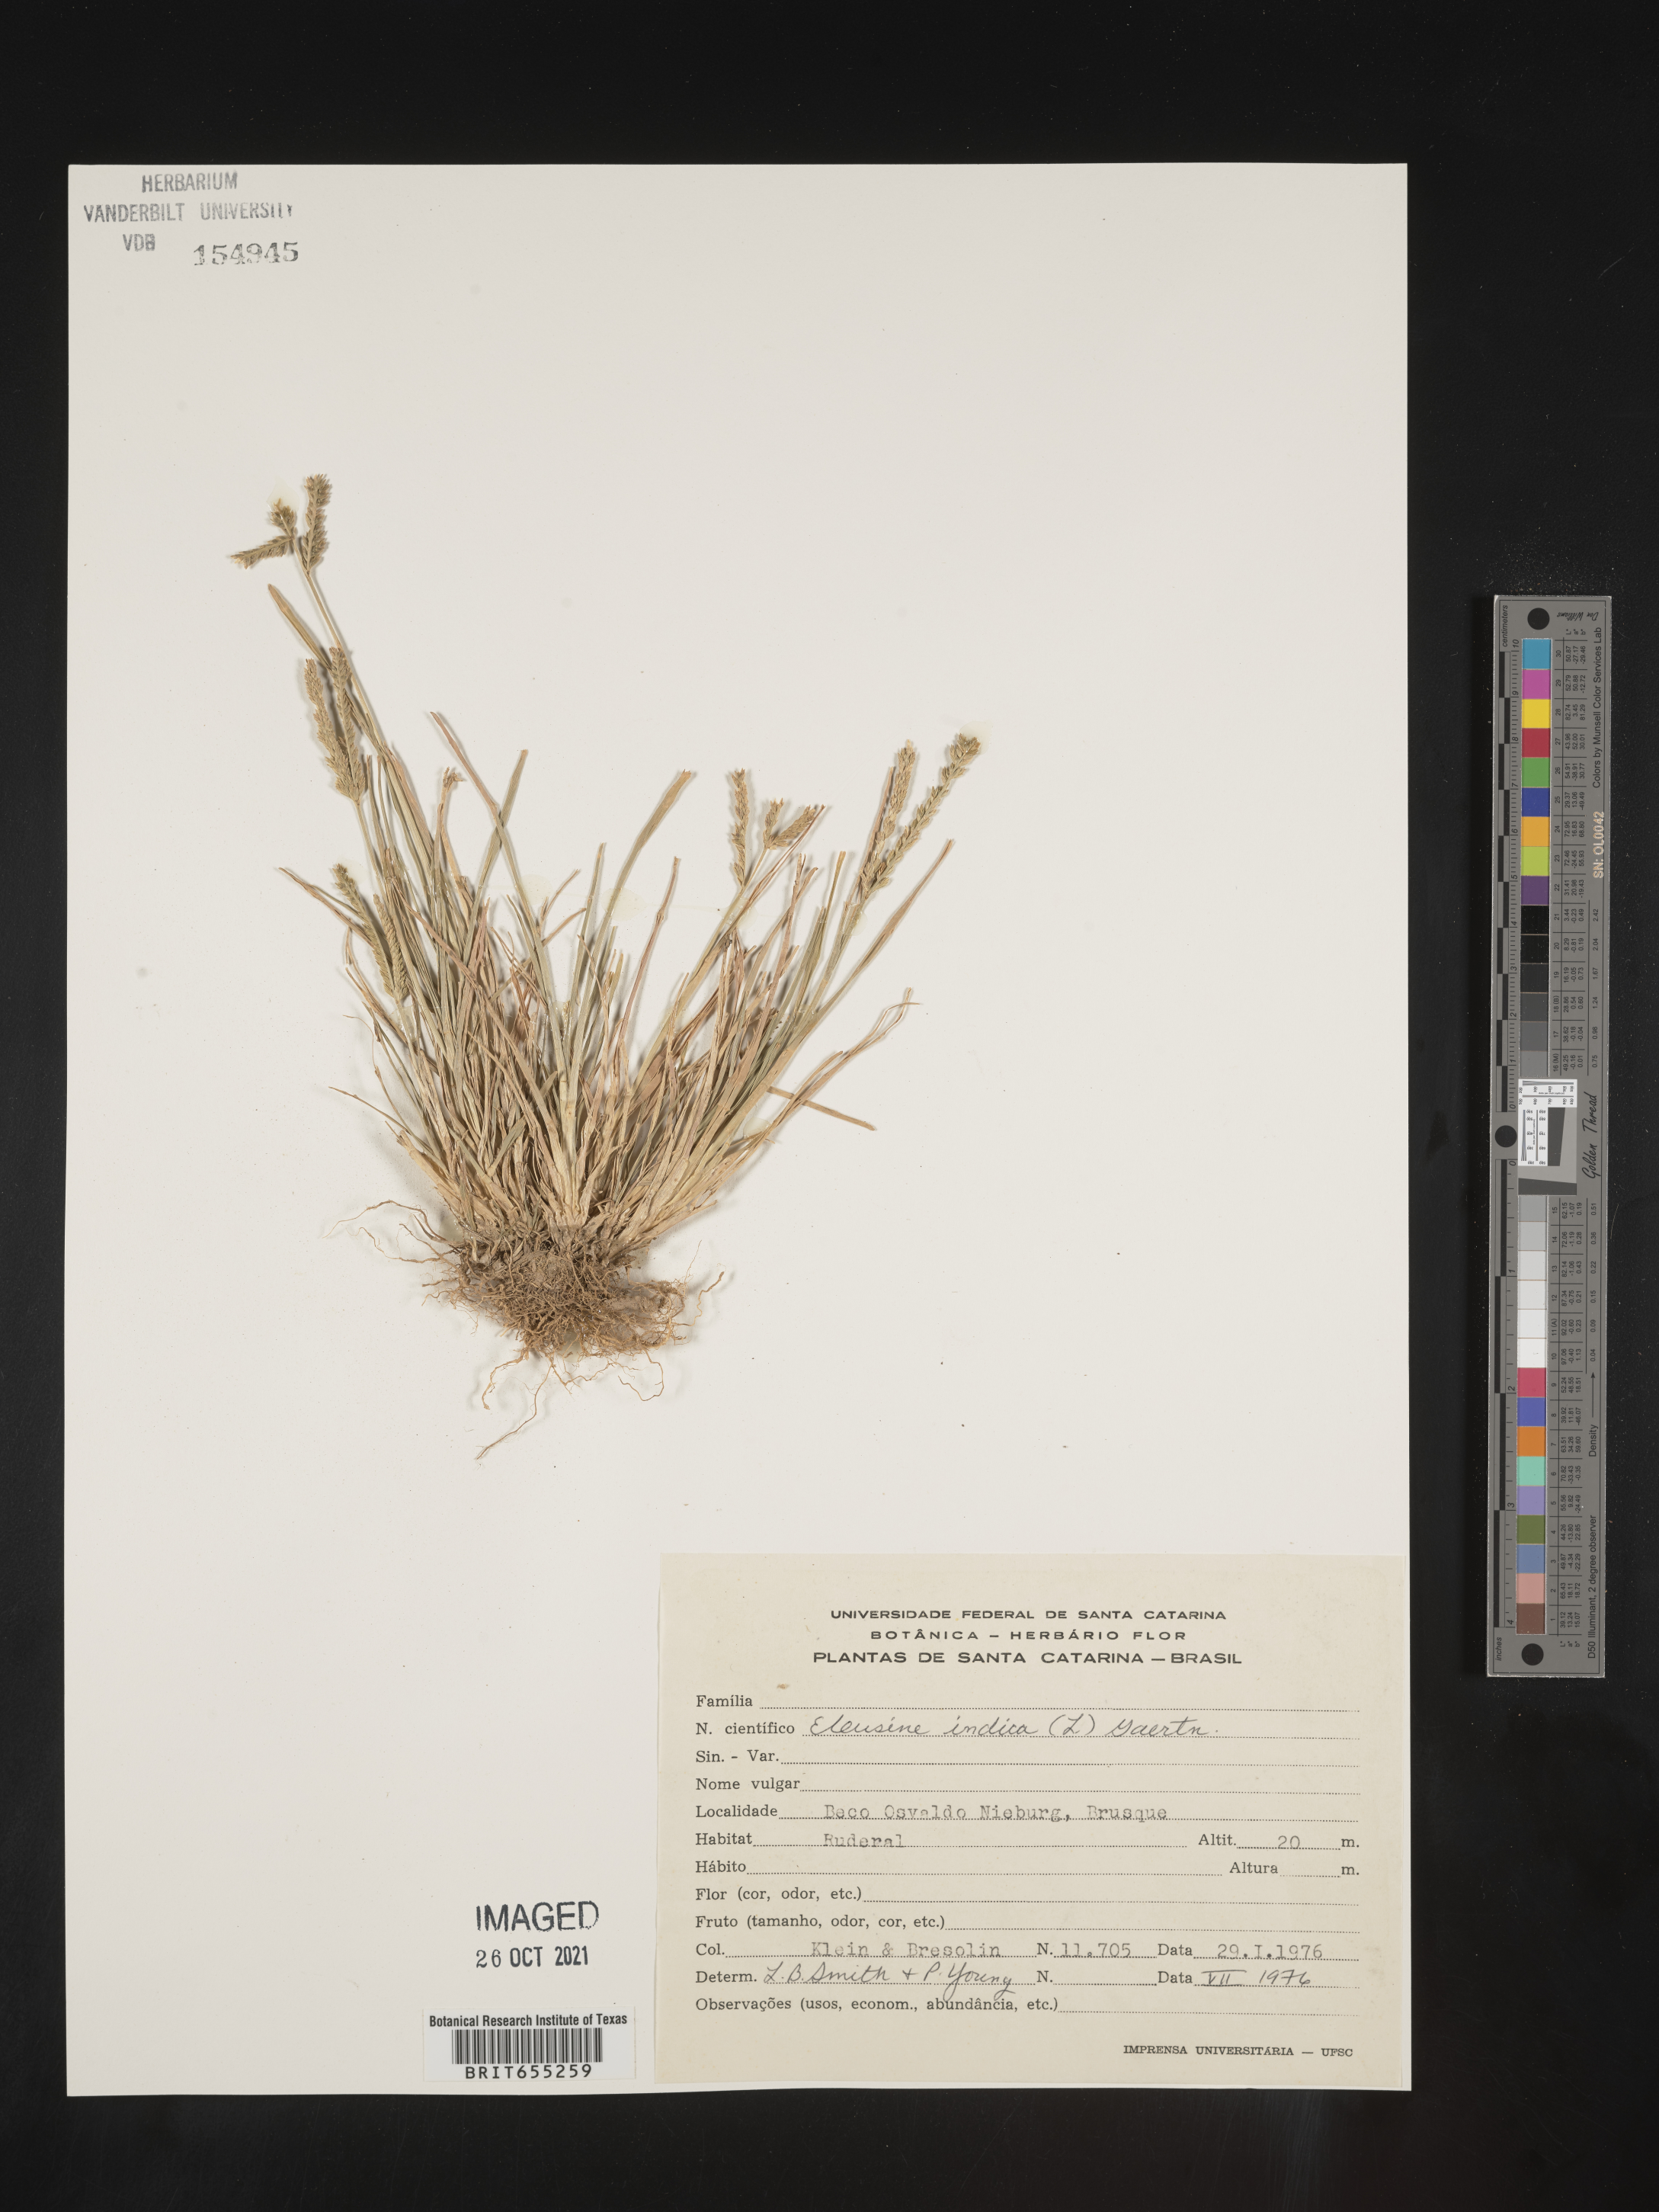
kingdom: Plantae
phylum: Tracheophyta
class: Liliopsida
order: Poales
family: Poaceae
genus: Eleusine
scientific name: Eleusine
